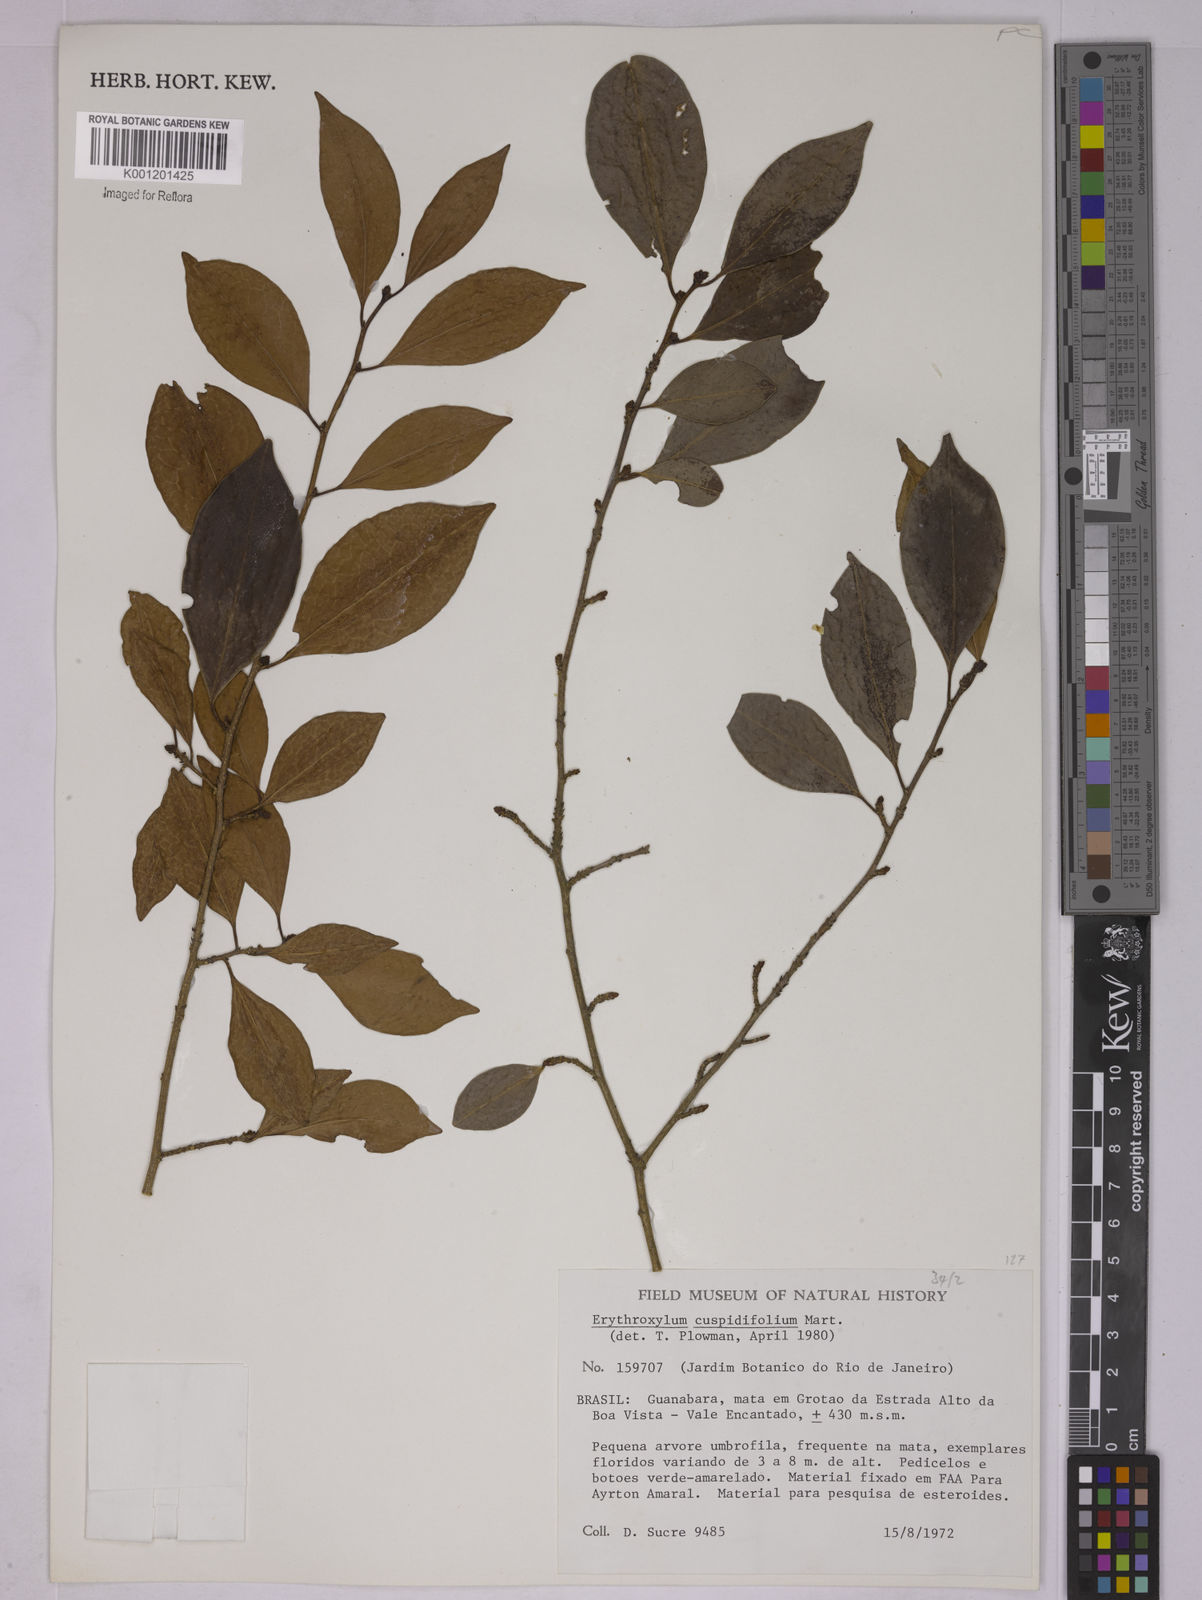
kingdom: Plantae
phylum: Tracheophyta
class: Magnoliopsida
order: Malpighiales
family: Erythroxylaceae
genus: Erythroxylum
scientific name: Erythroxylum cuspidifolium
